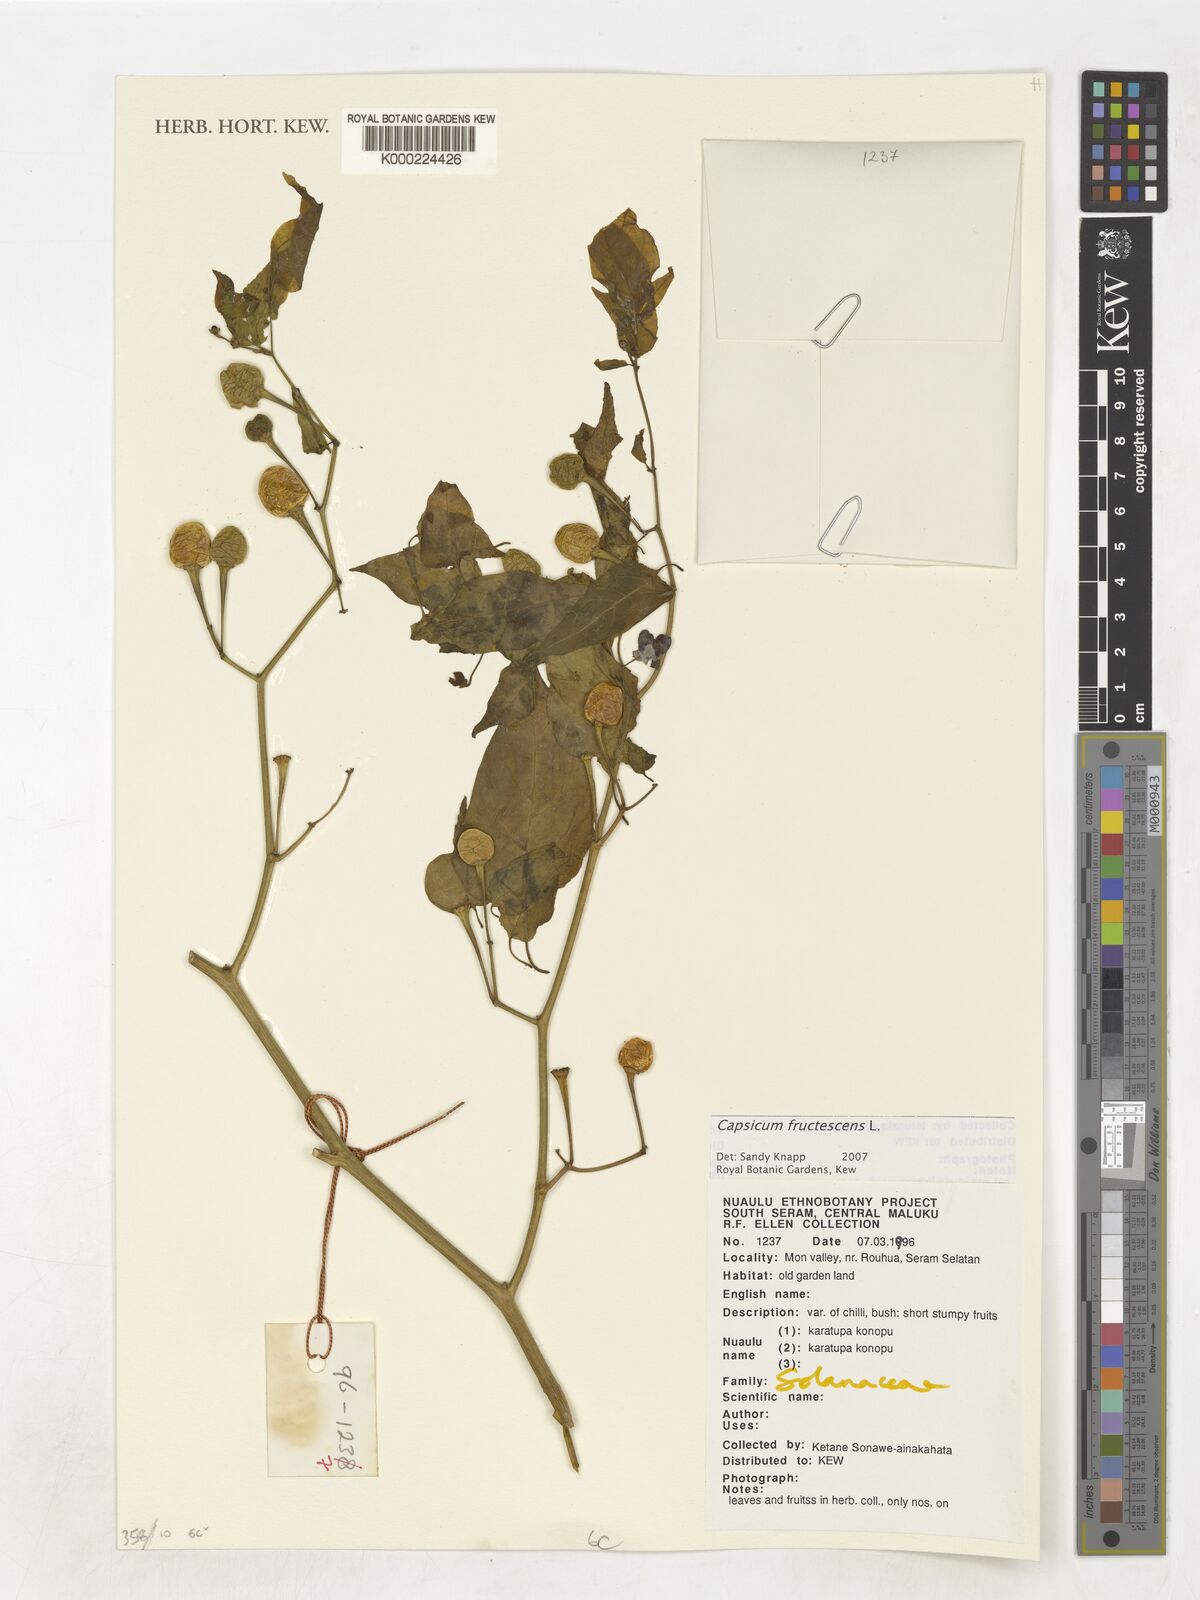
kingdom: Plantae
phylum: Tracheophyta
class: Magnoliopsida
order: Solanales
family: Solanaceae
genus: Capsicum
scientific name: Capsicum frutescens
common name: Bird pepper
